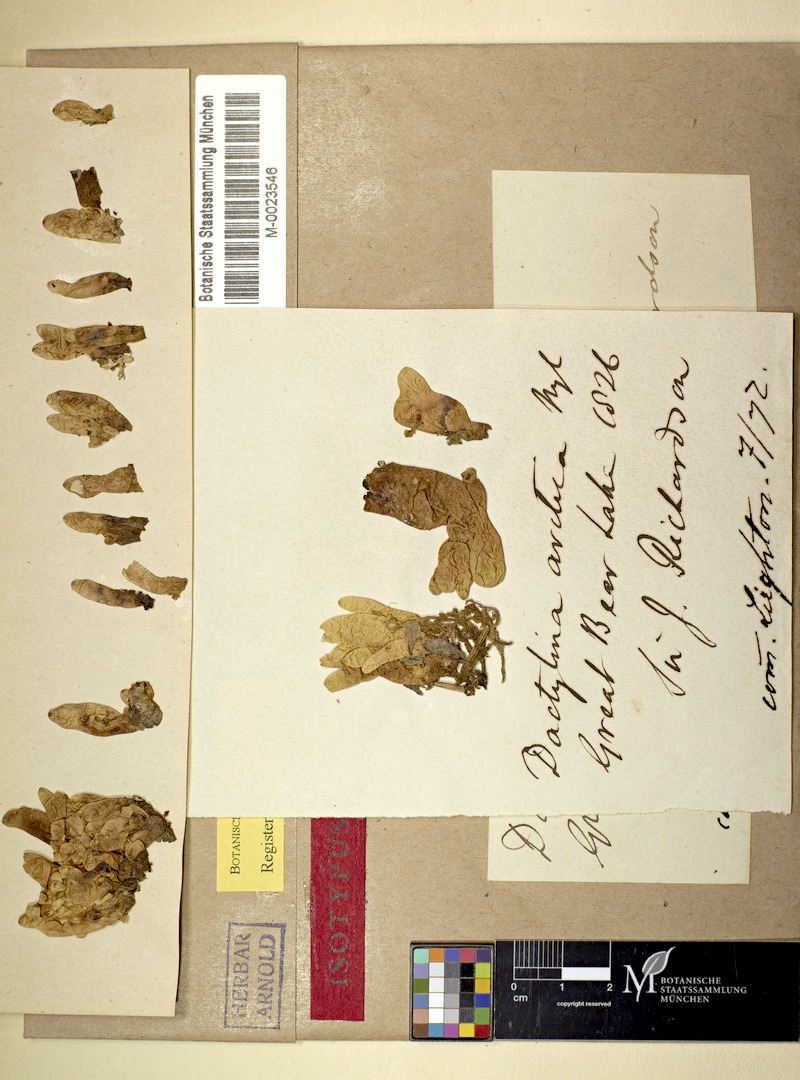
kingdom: Fungi
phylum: Ascomycota
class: Lecanoromycetes
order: Lecanorales
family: Parmeliaceae
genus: Dactylina
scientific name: Dactylina arctica
